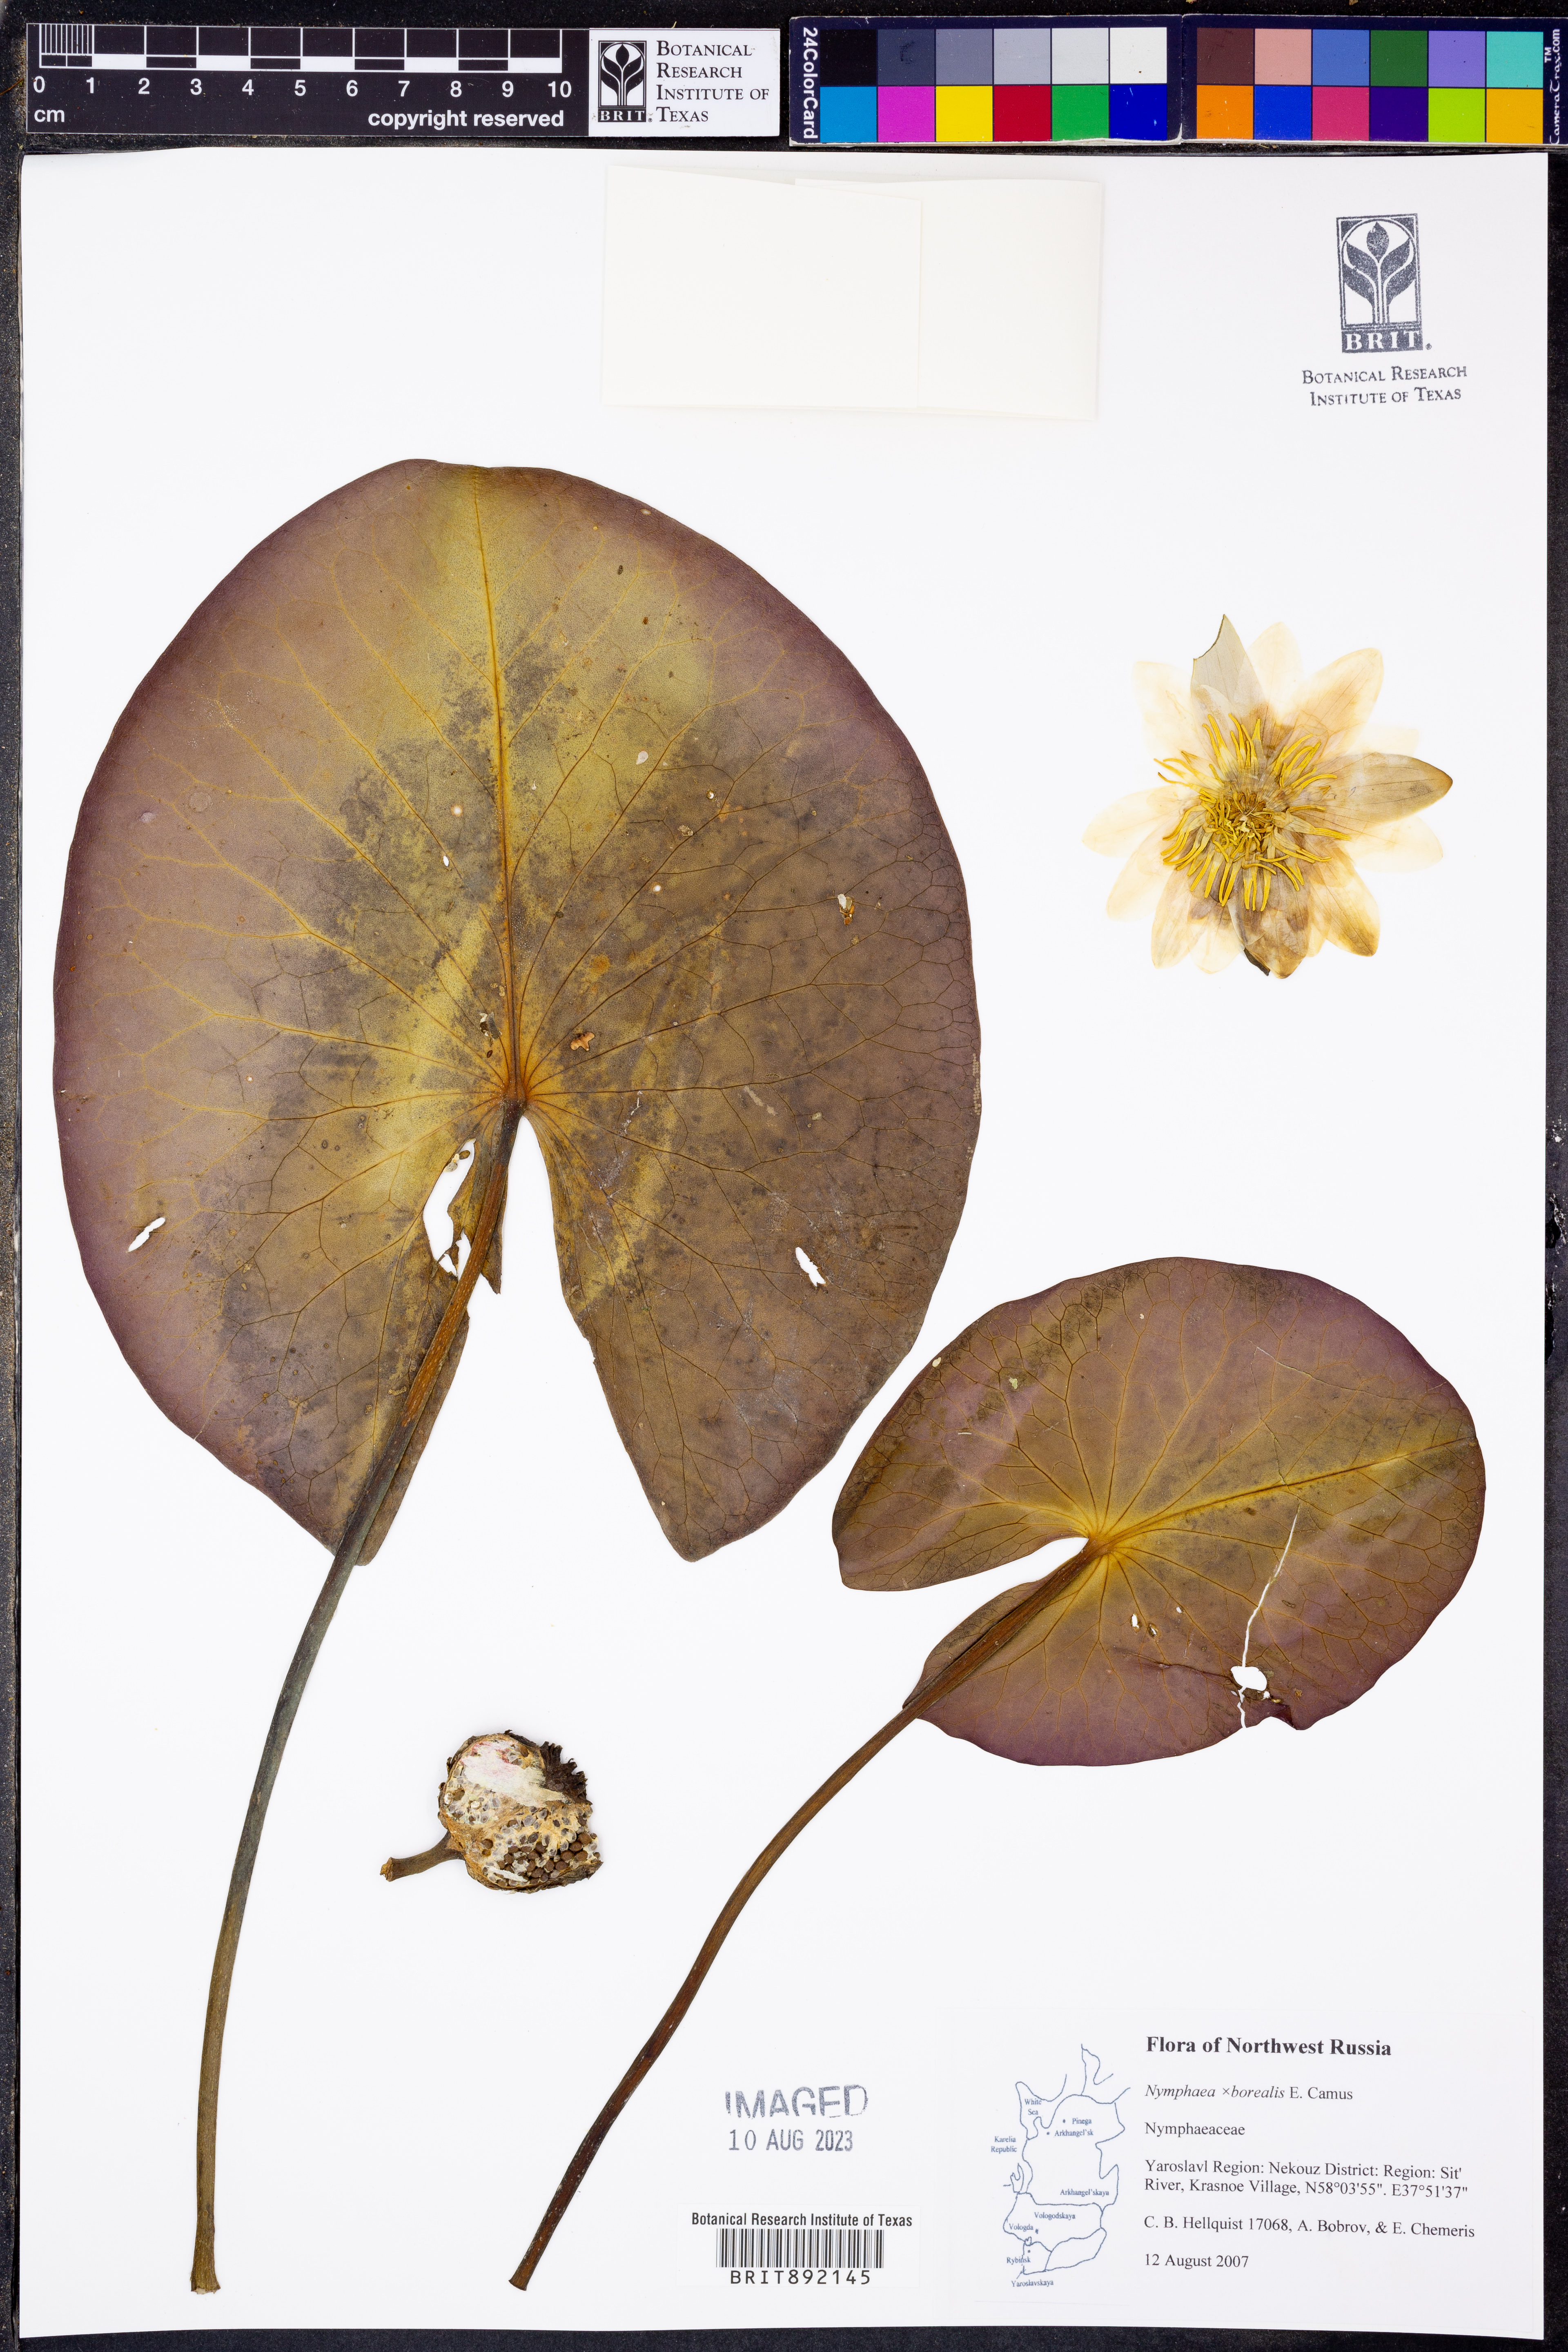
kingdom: Plantae
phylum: Tracheophyta
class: Magnoliopsida
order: Nymphaeales
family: Nymphaeaceae
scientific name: Nymphaeaceae
